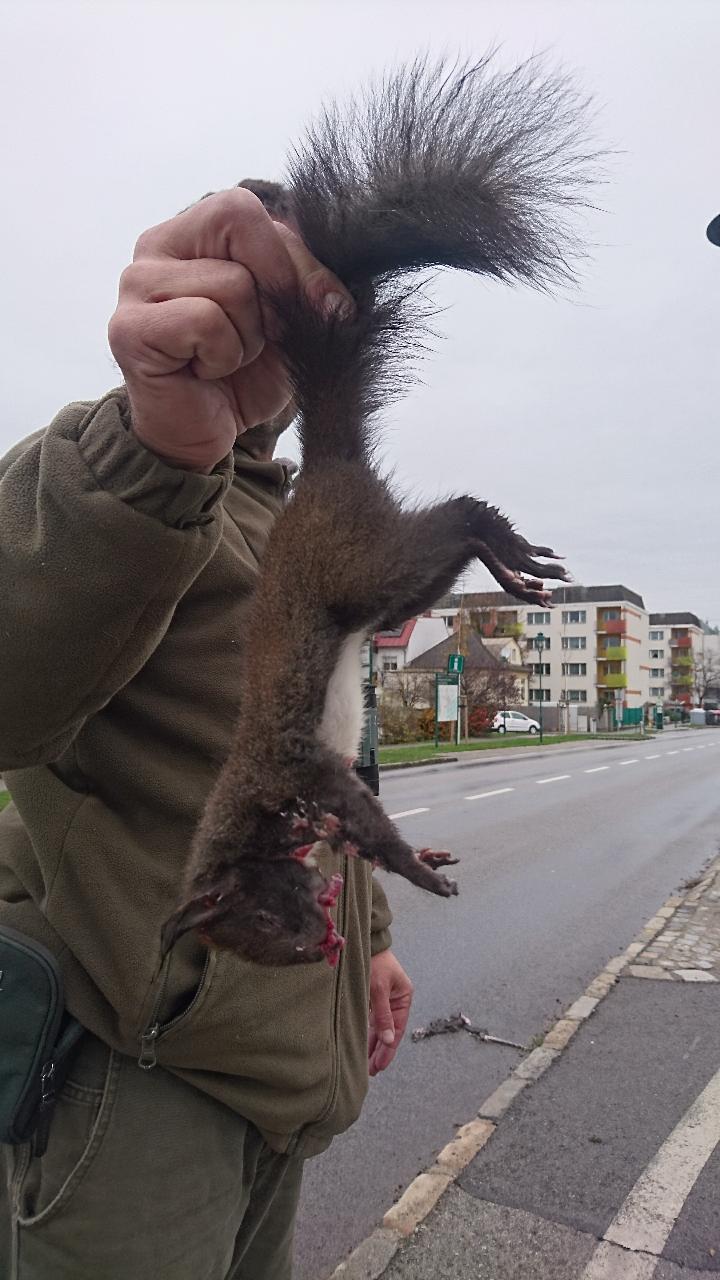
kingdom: Animalia
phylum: Chordata
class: Mammalia
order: Rodentia
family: Sciuridae
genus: Sciurus
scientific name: Sciurus vulgaris
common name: Eurasian red squirrel
